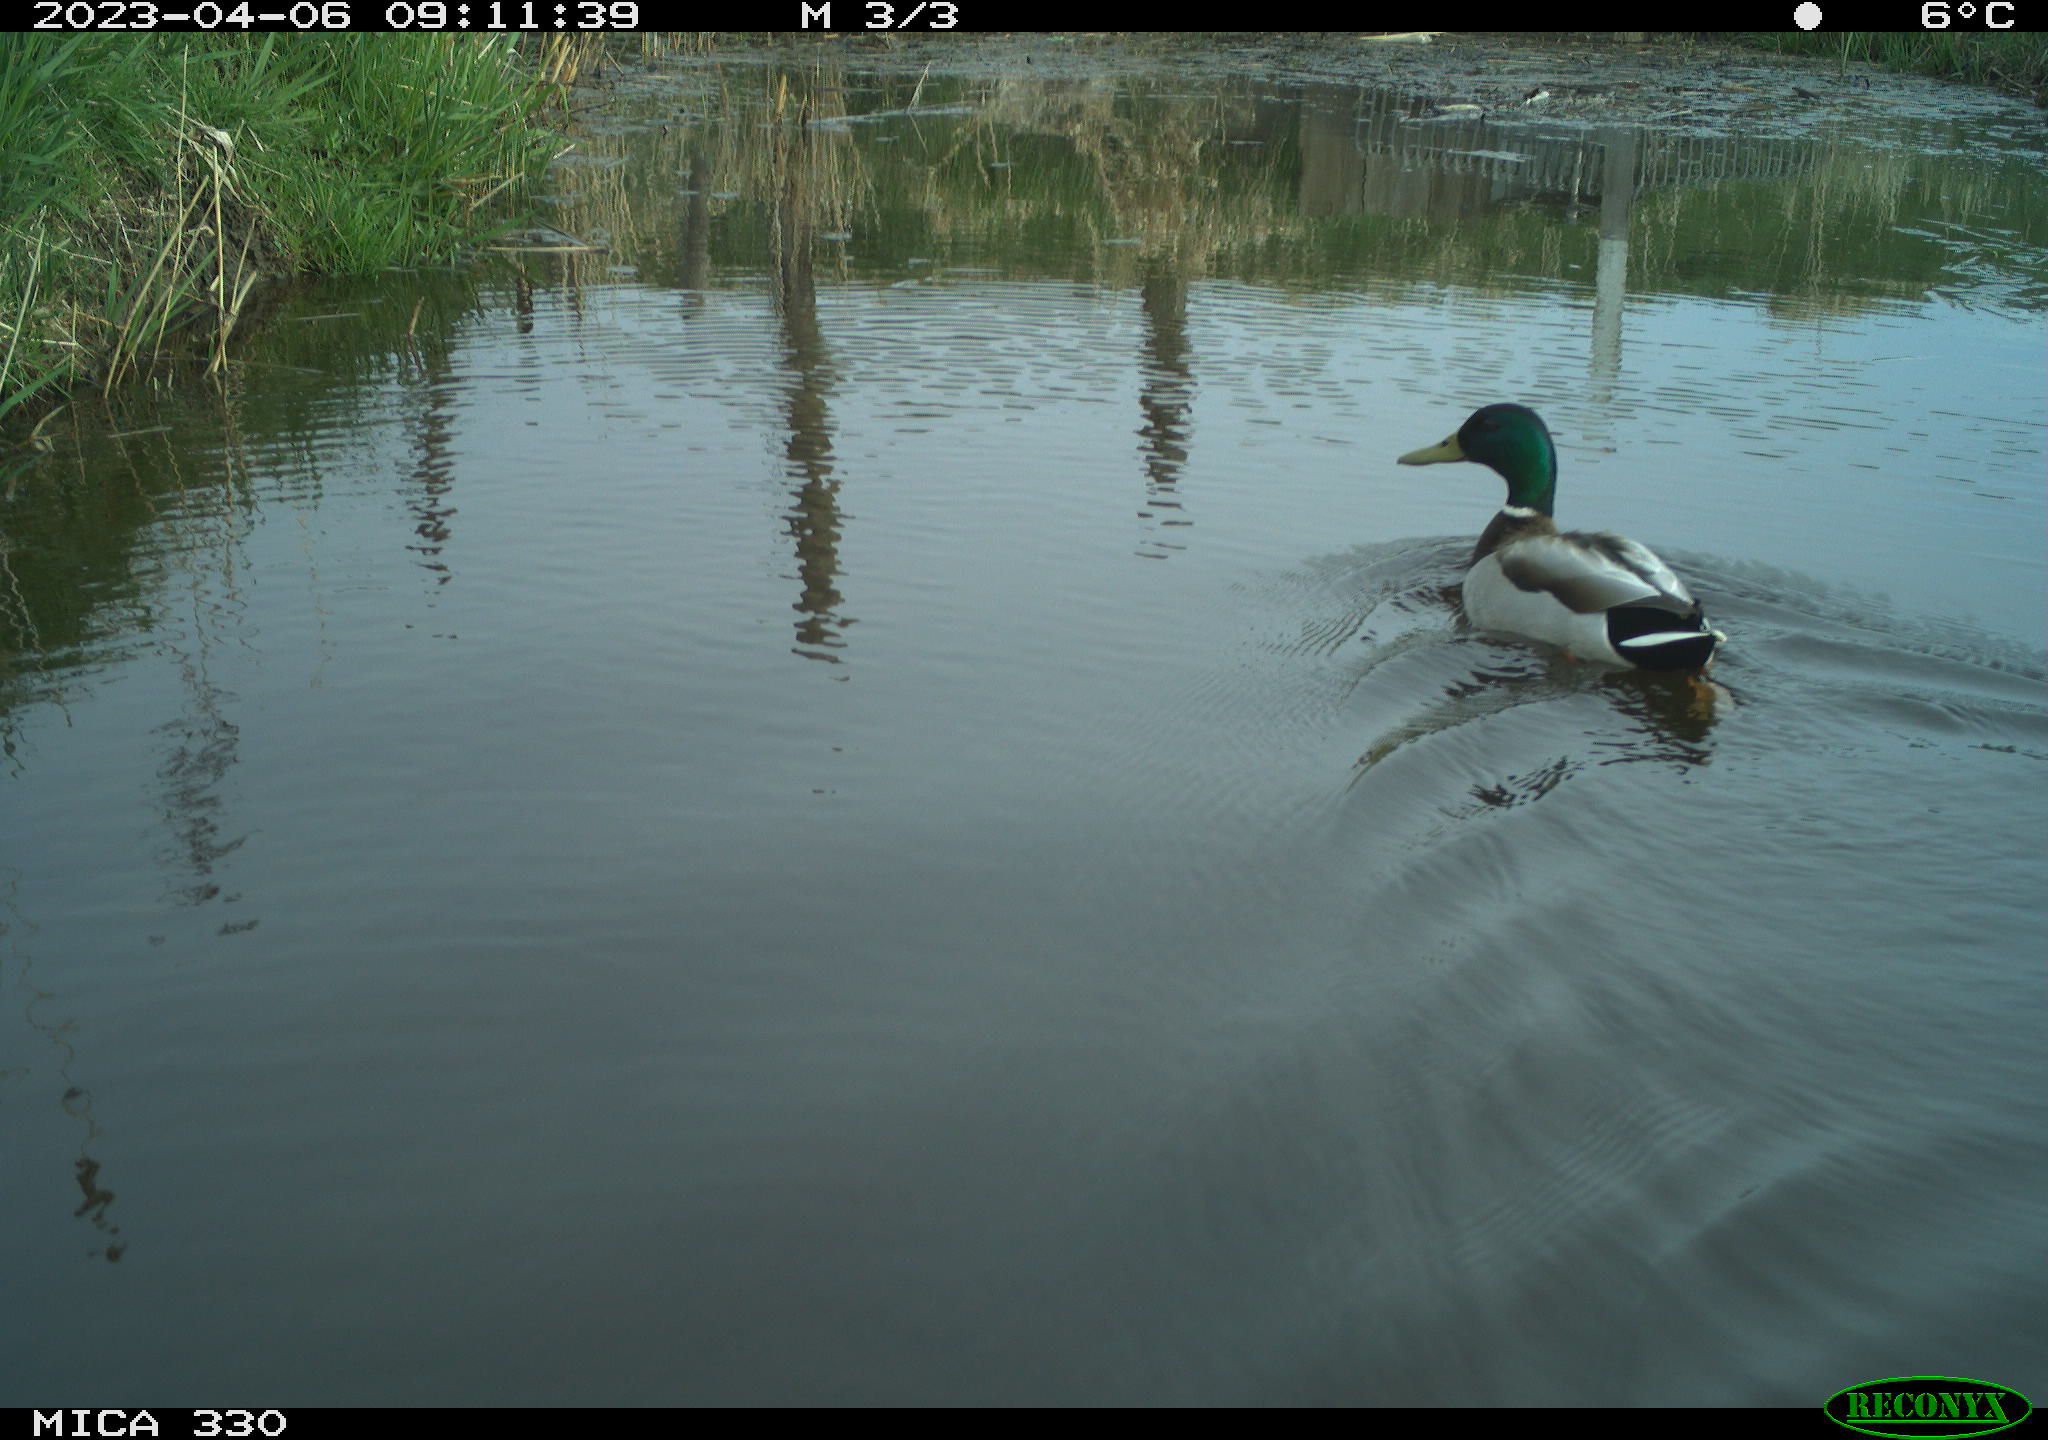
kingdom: Animalia
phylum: Chordata
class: Aves
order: Anseriformes
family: Anatidae
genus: Anas
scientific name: Anas
